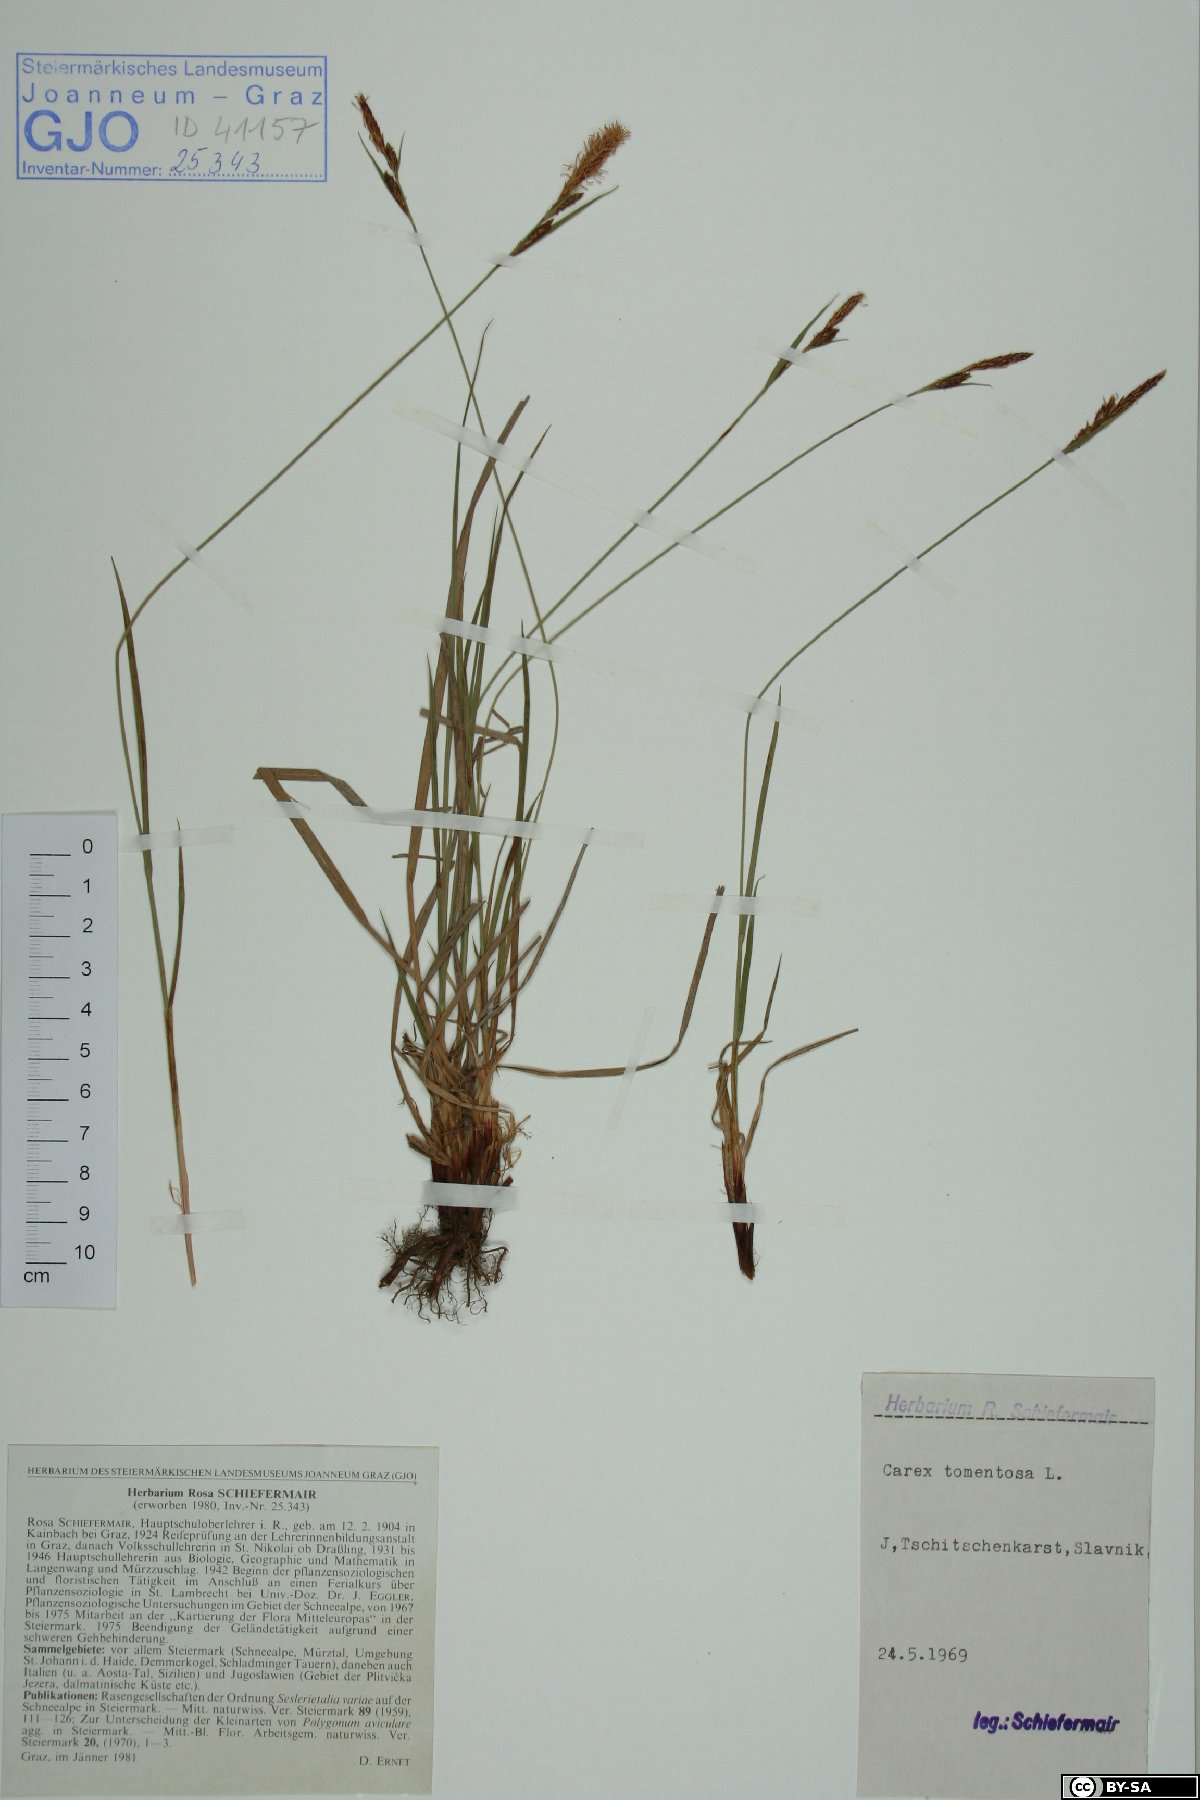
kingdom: Plantae
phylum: Tracheophyta
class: Liliopsida
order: Poales
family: Cyperaceae
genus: Carex
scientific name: Carex tomentosa
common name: Downy-fruited sedge
